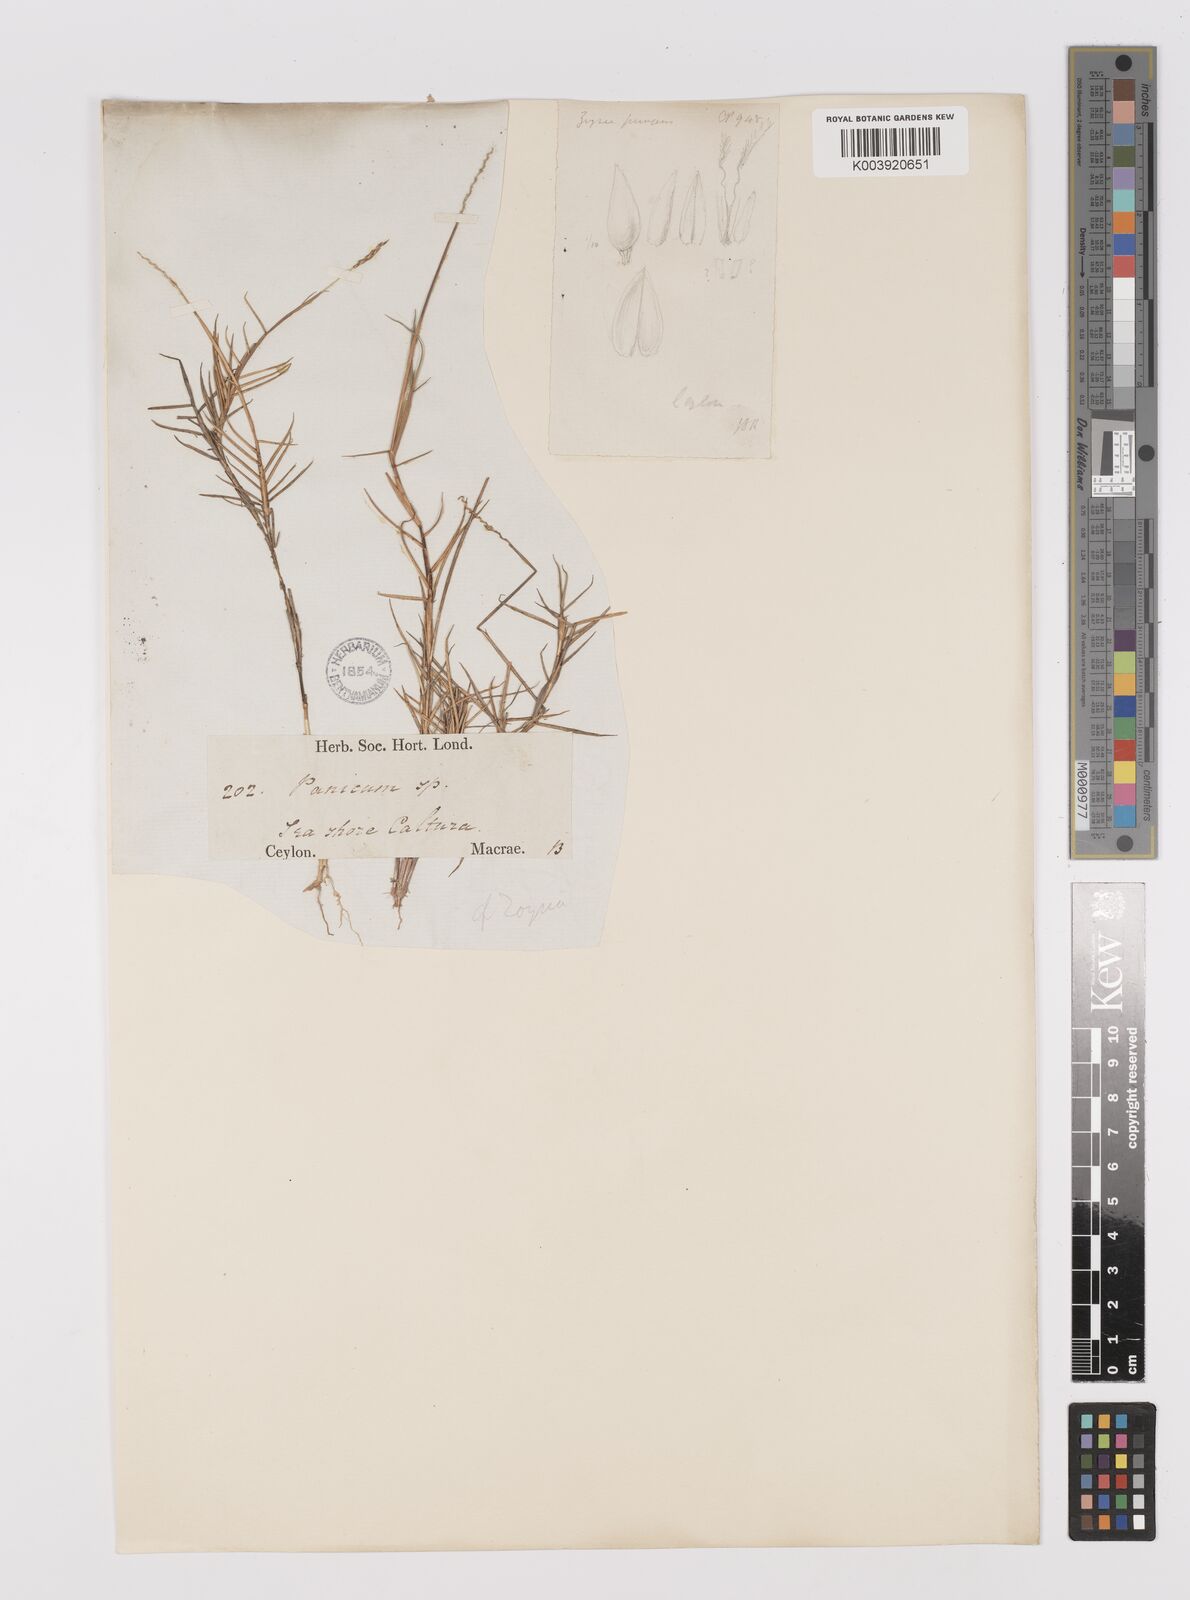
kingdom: Plantae
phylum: Tracheophyta
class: Liliopsida
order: Poales
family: Poaceae
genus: Zoysia
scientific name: Zoysia matrella
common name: Manila grass
